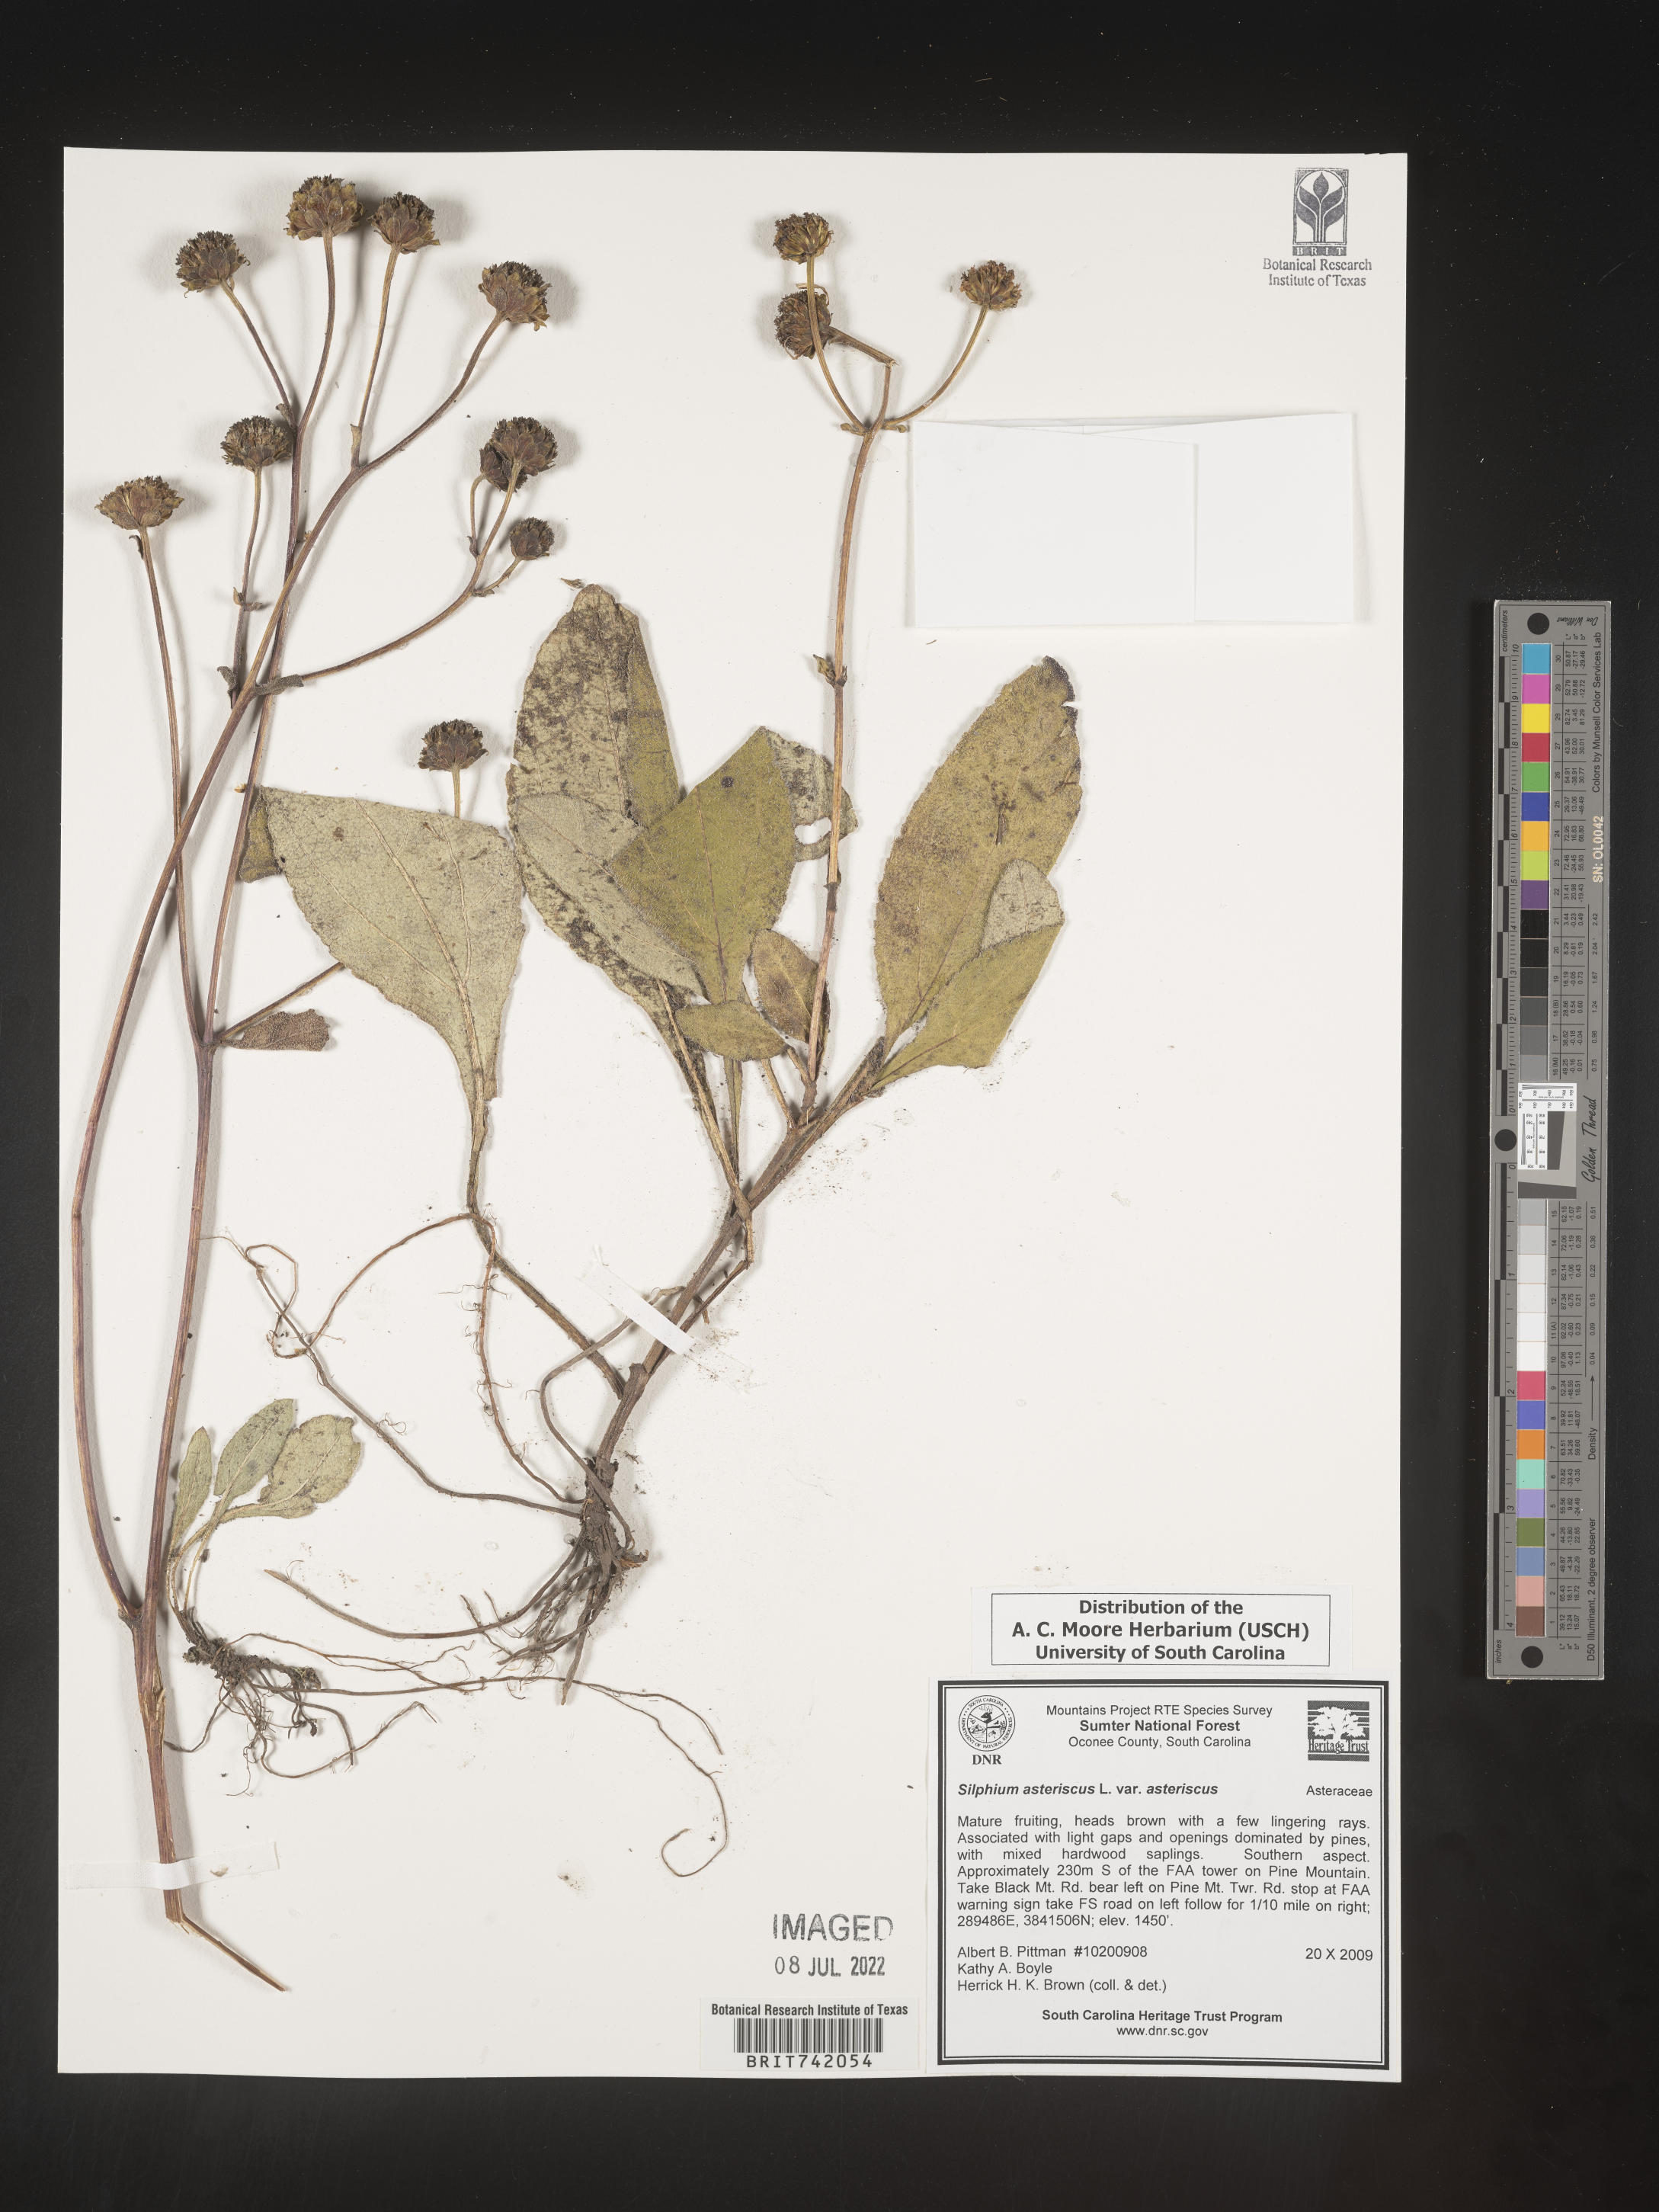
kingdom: Plantae
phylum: Tracheophyta
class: Magnoliopsida
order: Asterales
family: Asteraceae
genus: Silphium
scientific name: Silphium asteriscus
